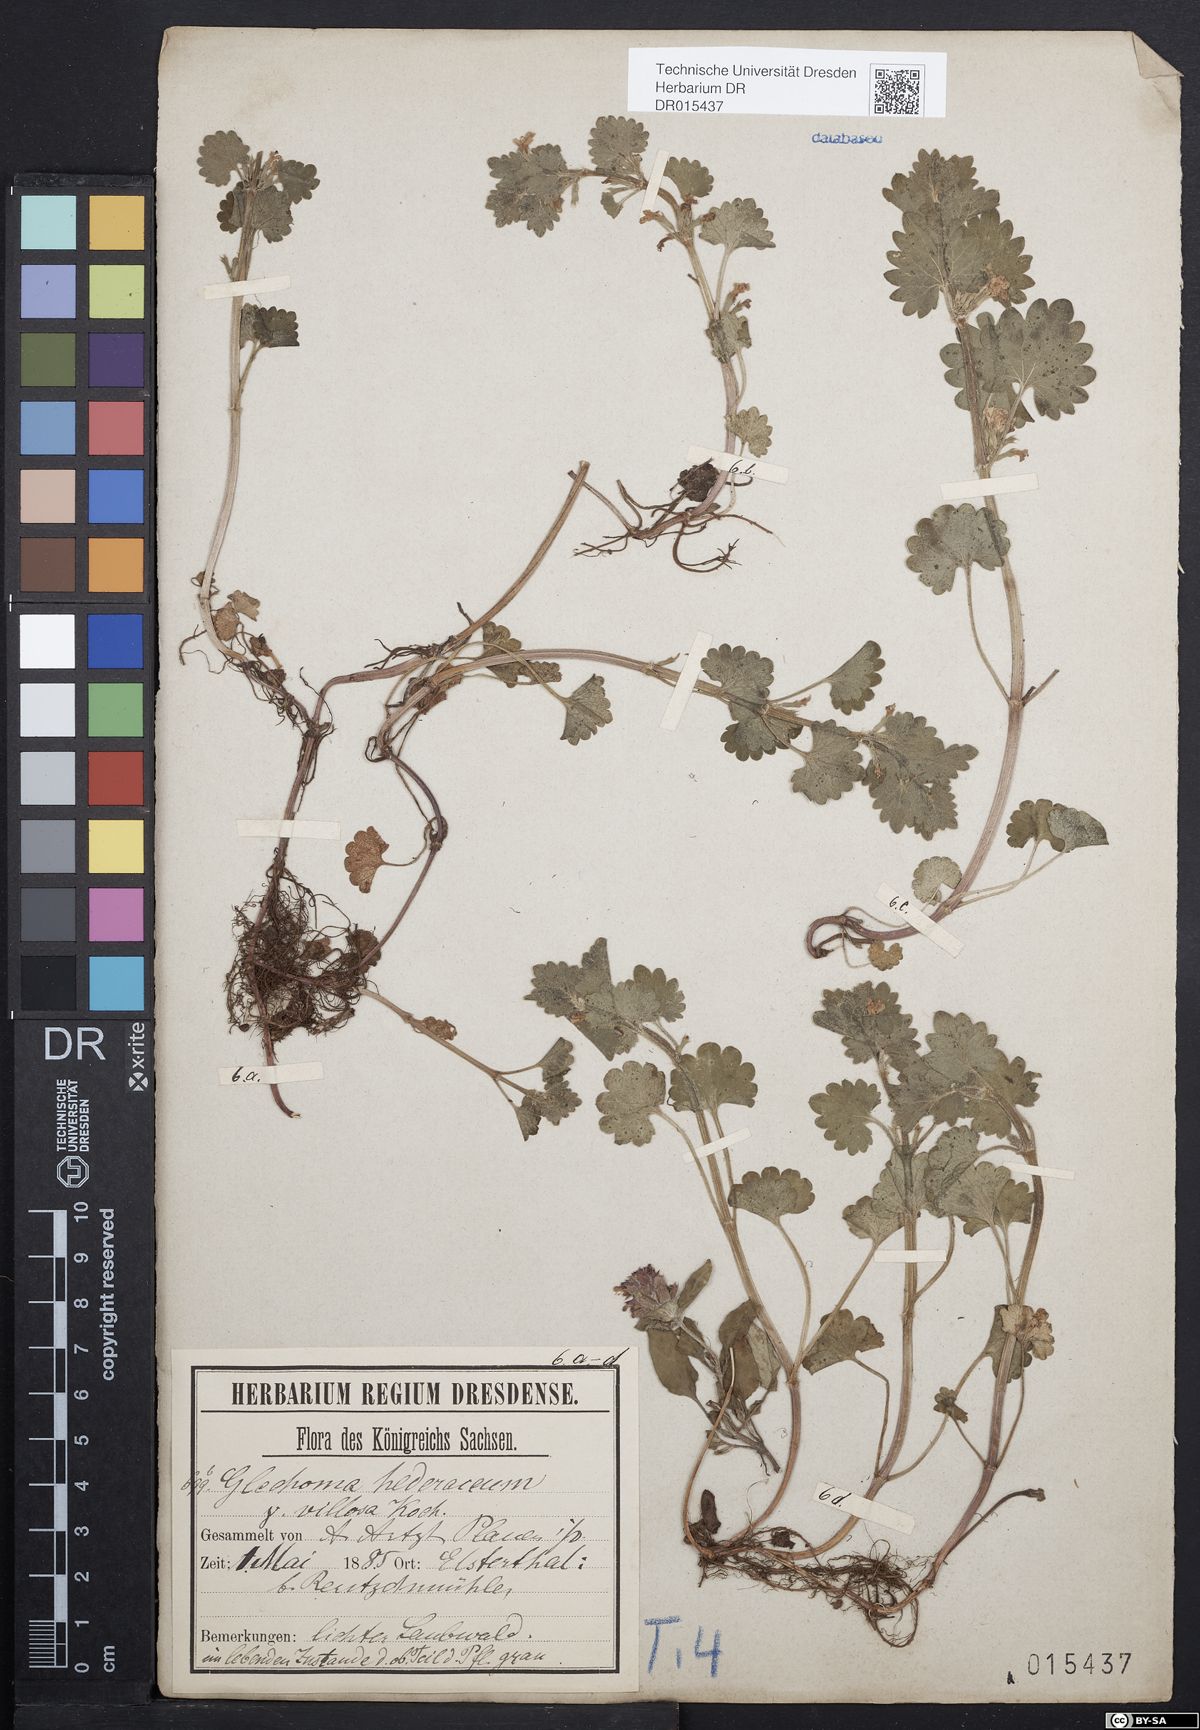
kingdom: Plantae
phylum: Tracheophyta
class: Magnoliopsida
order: Lamiales
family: Lamiaceae
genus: Glechoma
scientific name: Glechoma hederacea
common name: Ground ivy
